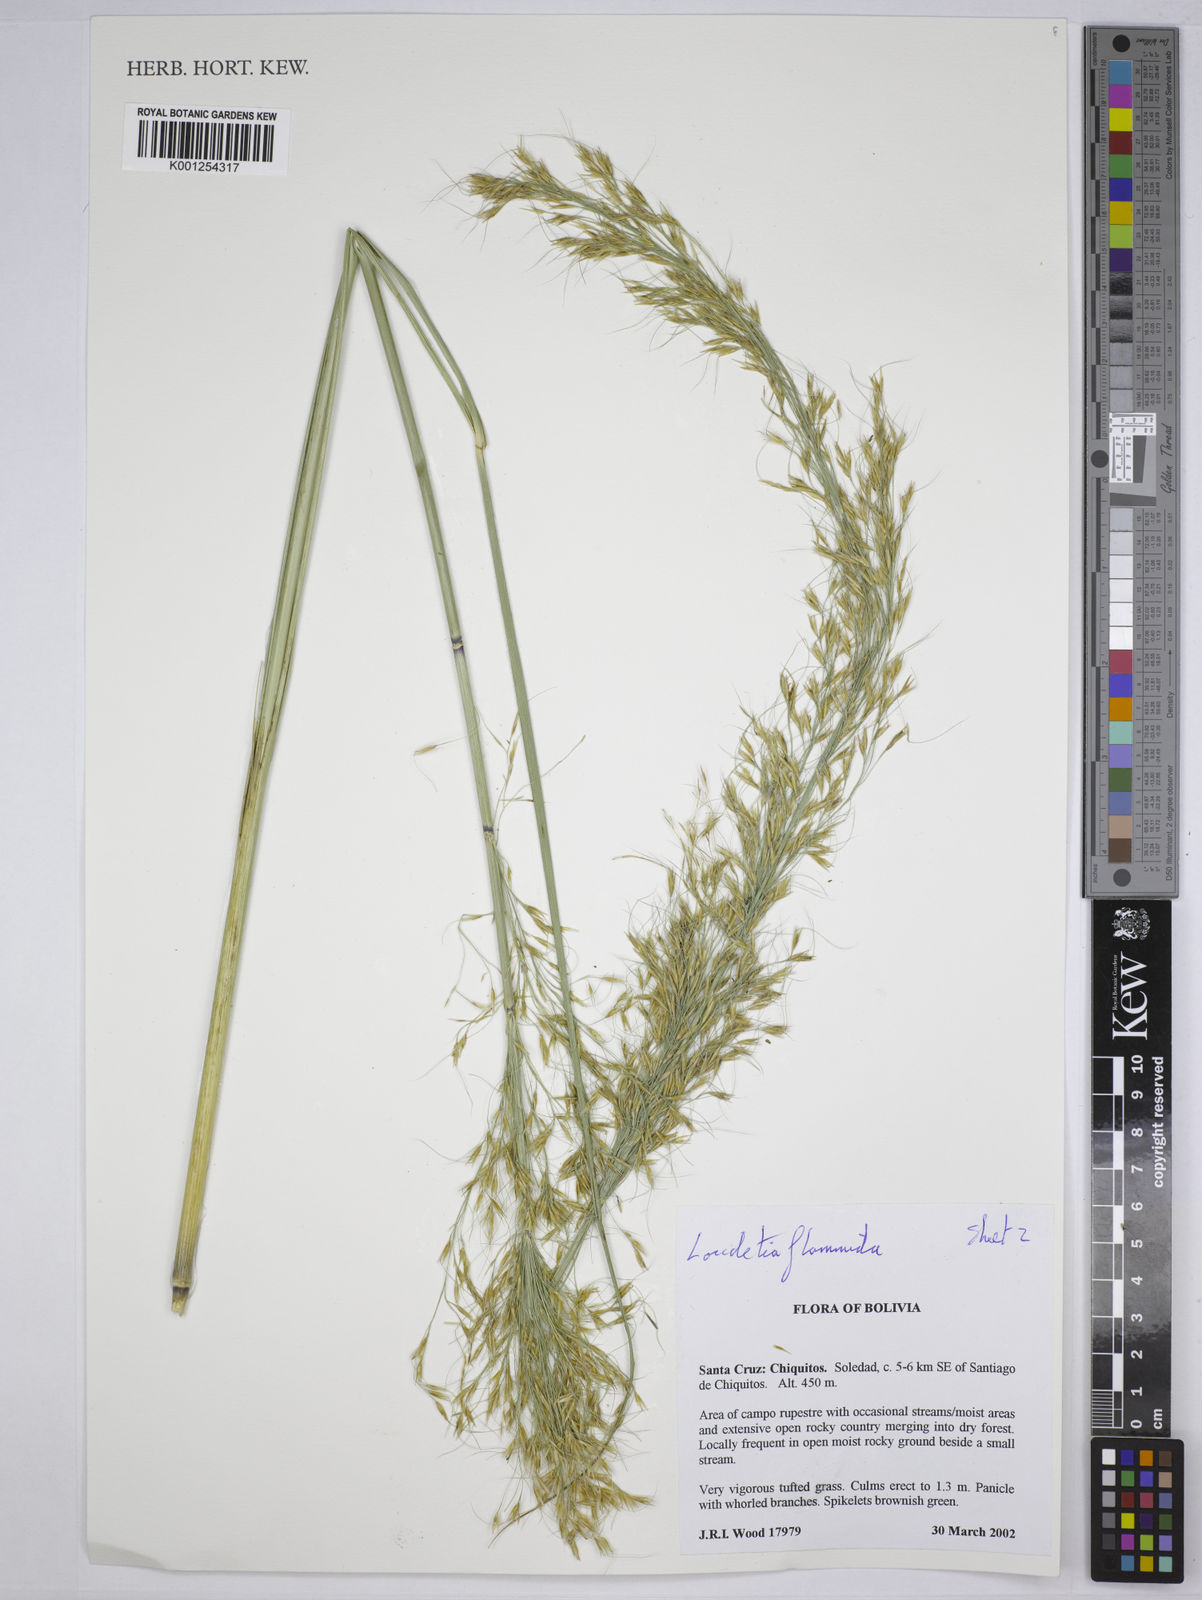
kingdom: Plantae
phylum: Tracheophyta
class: Liliopsida
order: Poales
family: Poaceae
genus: Loudetia
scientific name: Loudetia flammida
